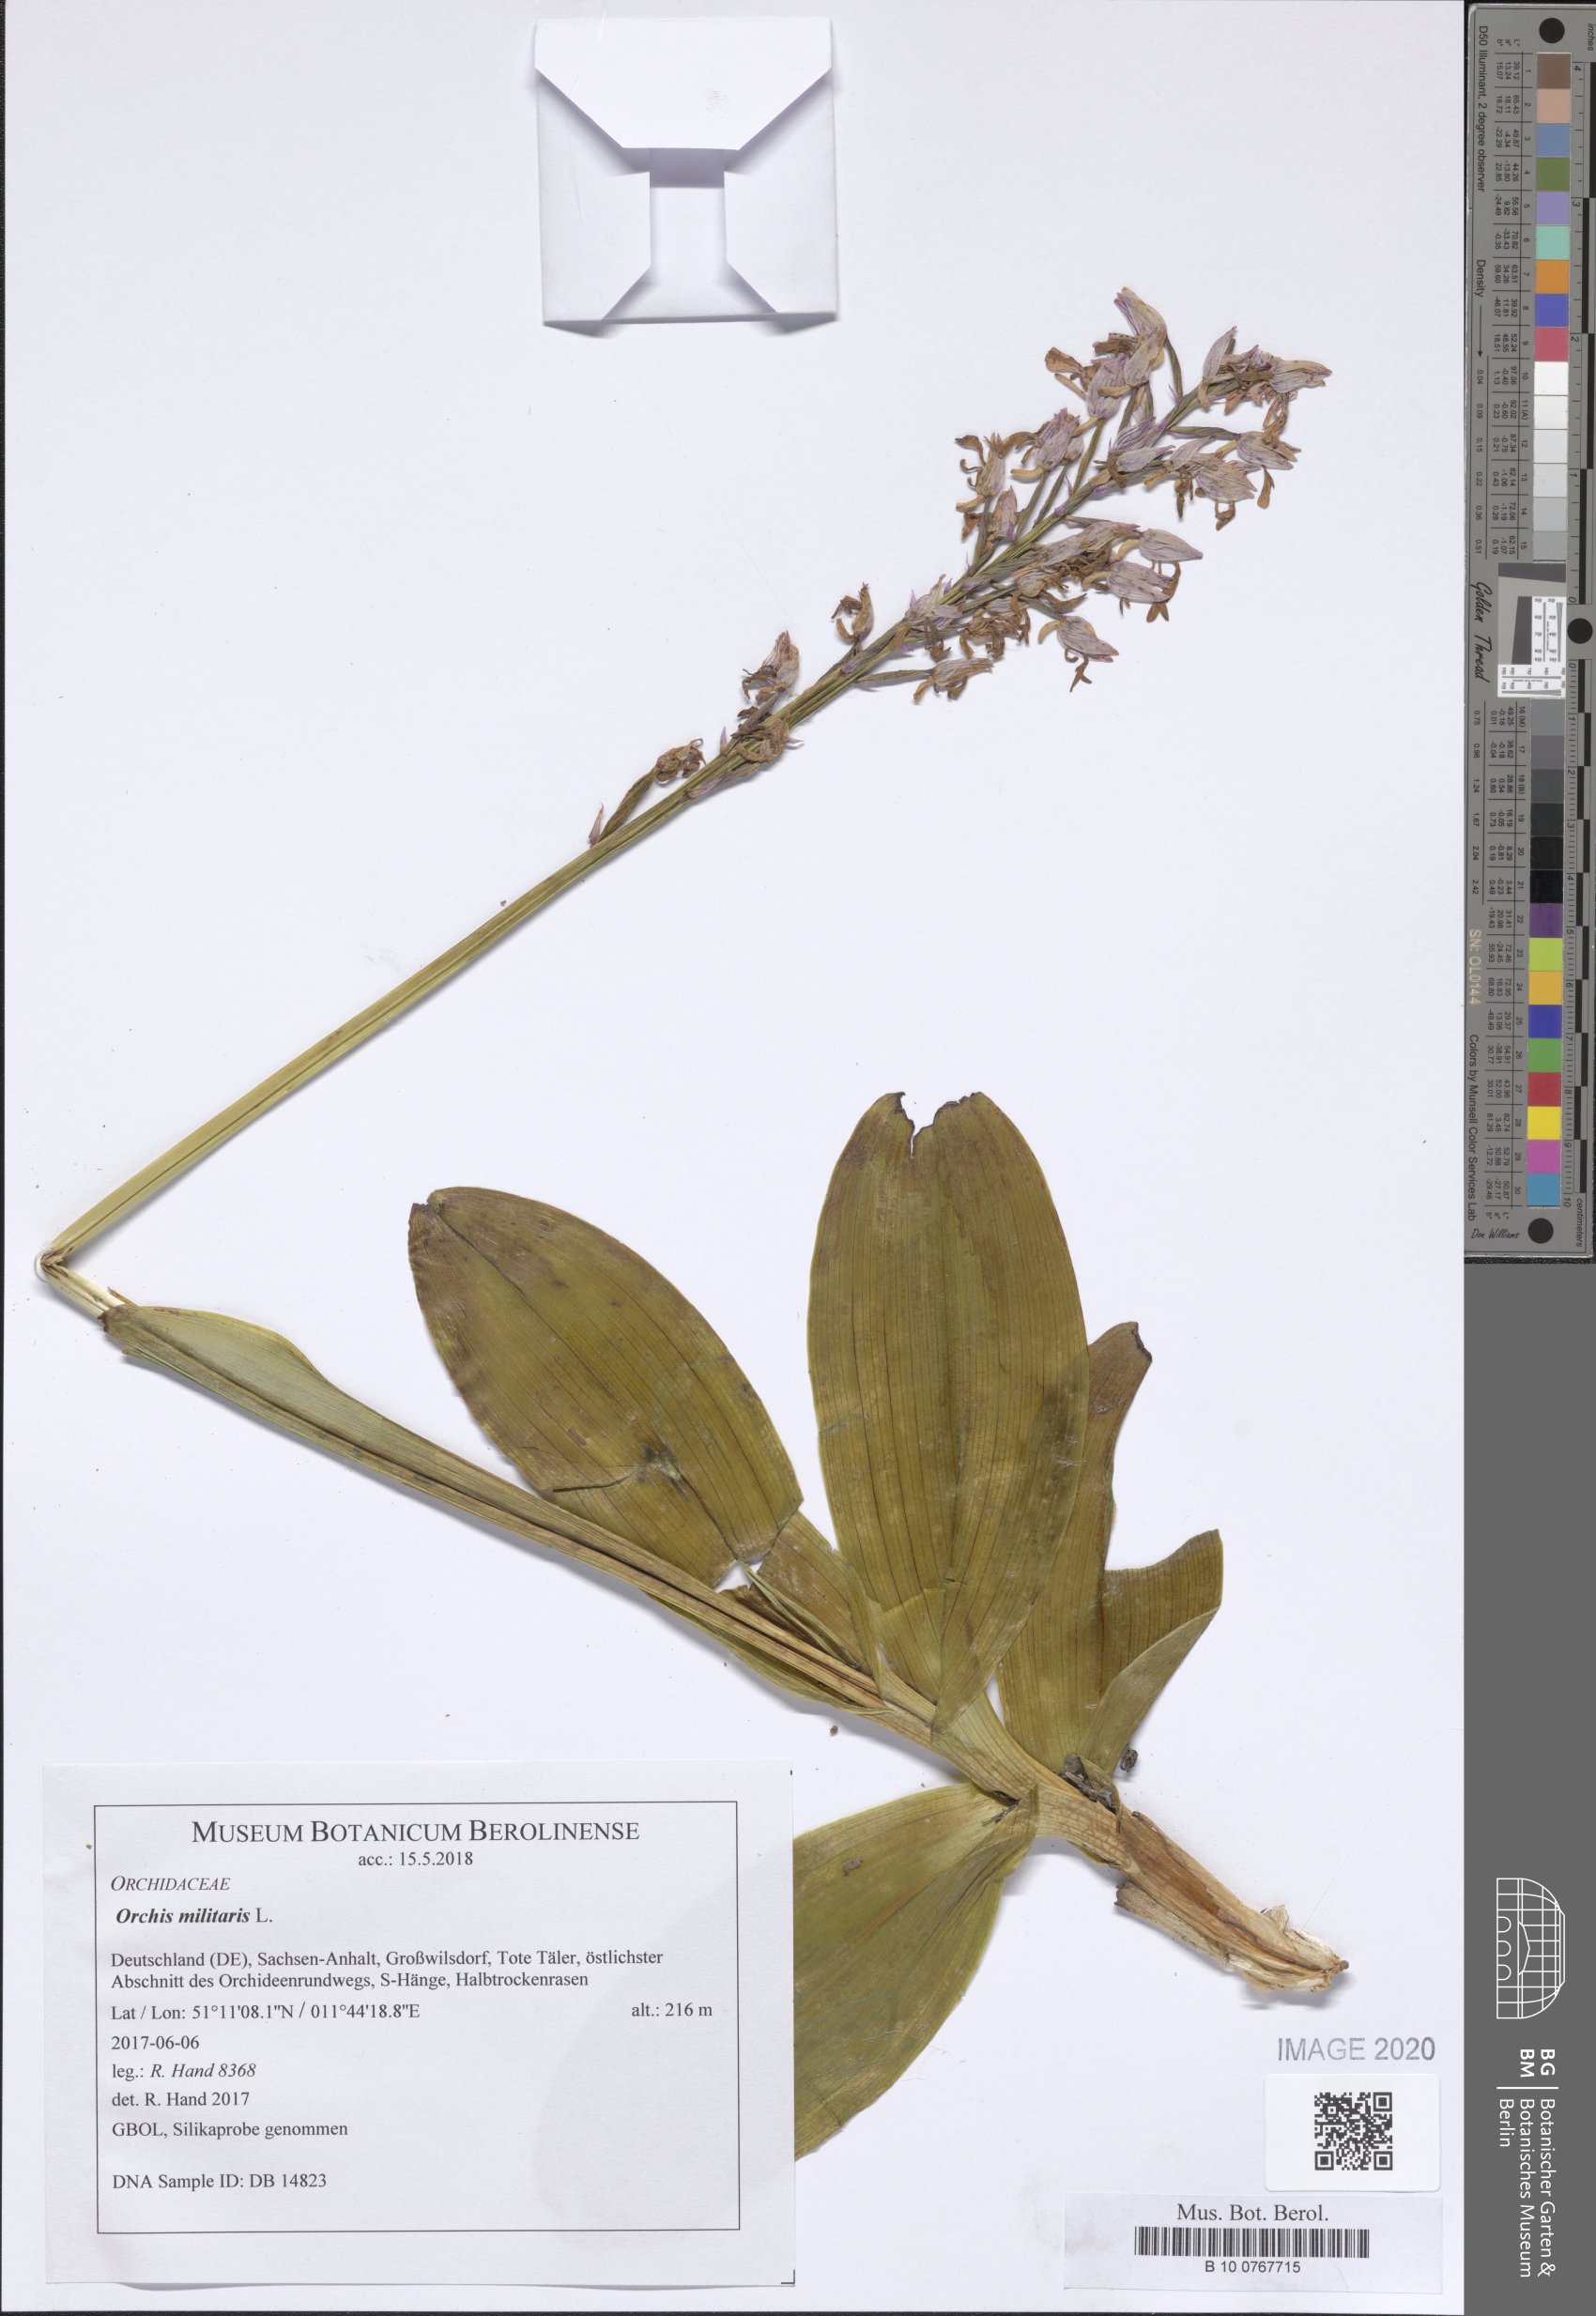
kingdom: Plantae
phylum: Tracheophyta
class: Liliopsida
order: Asparagales
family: Orchidaceae
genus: Orchis
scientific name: Orchis militaris
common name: Military orchid
